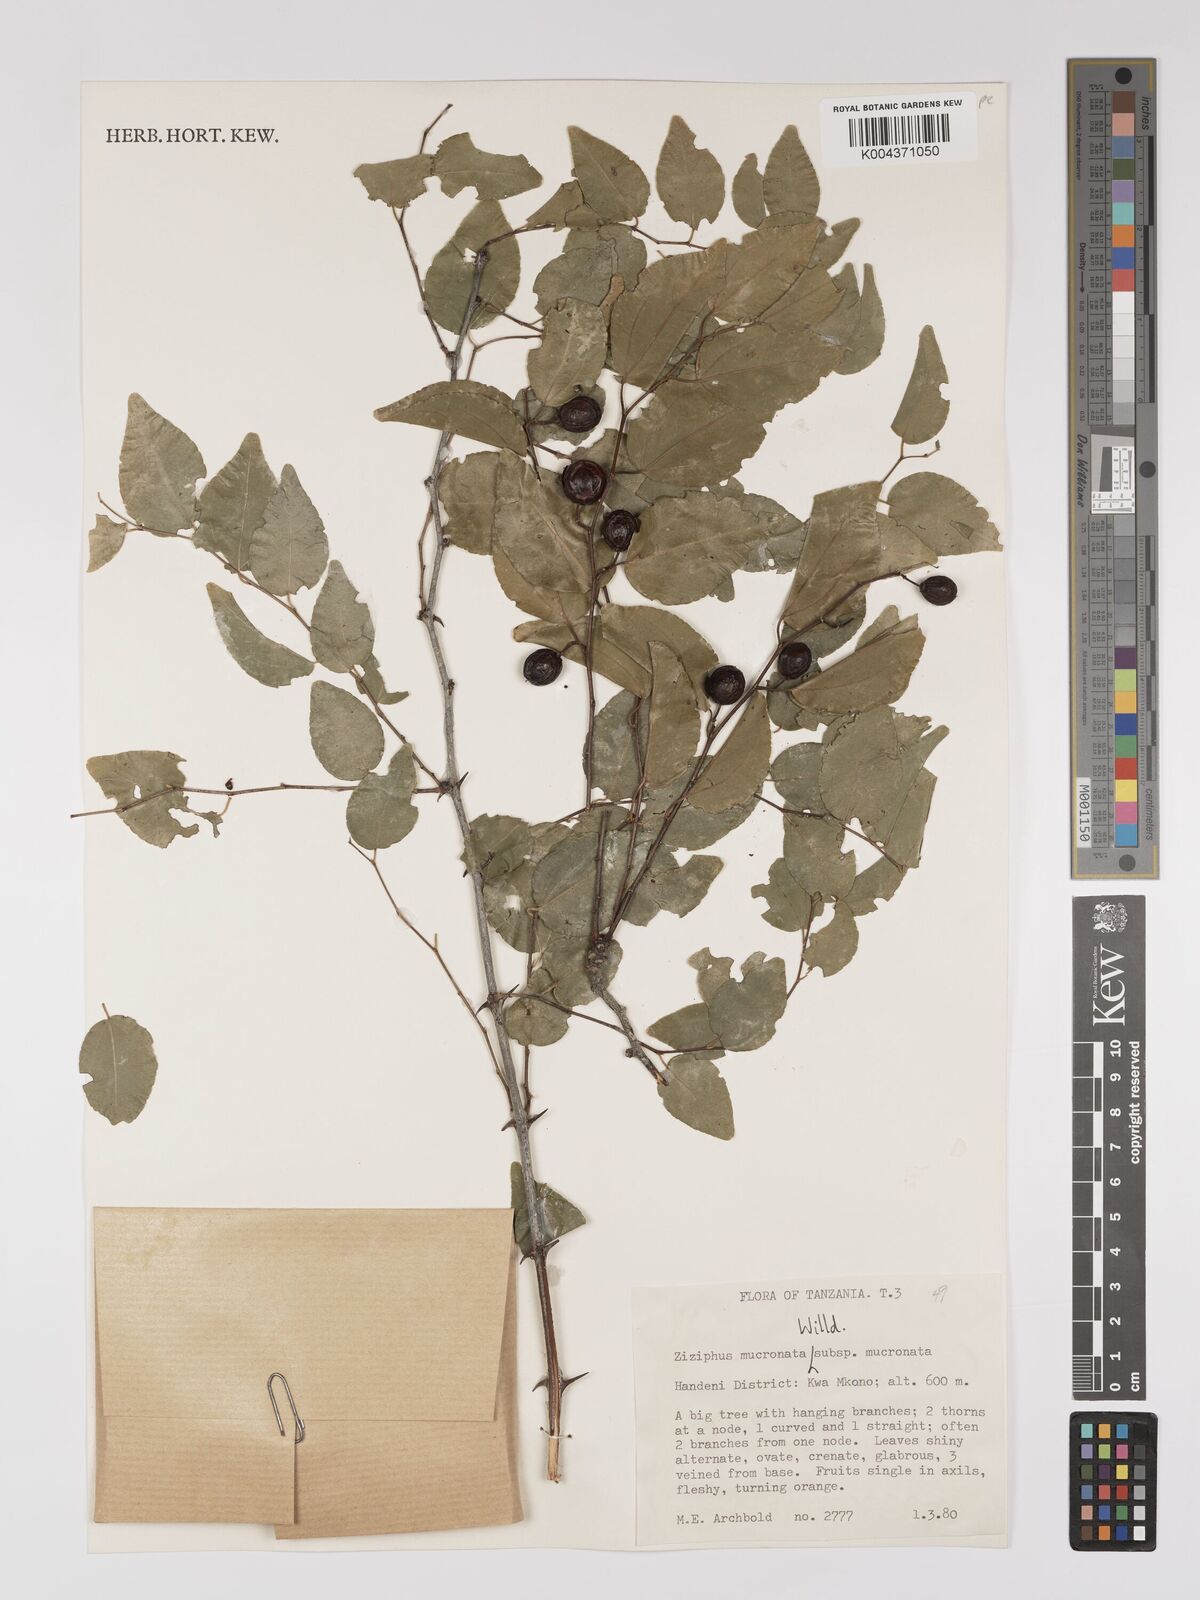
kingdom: Plantae
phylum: Tracheophyta
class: Magnoliopsida
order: Rosales
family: Rhamnaceae
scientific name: Rhamnaceae
